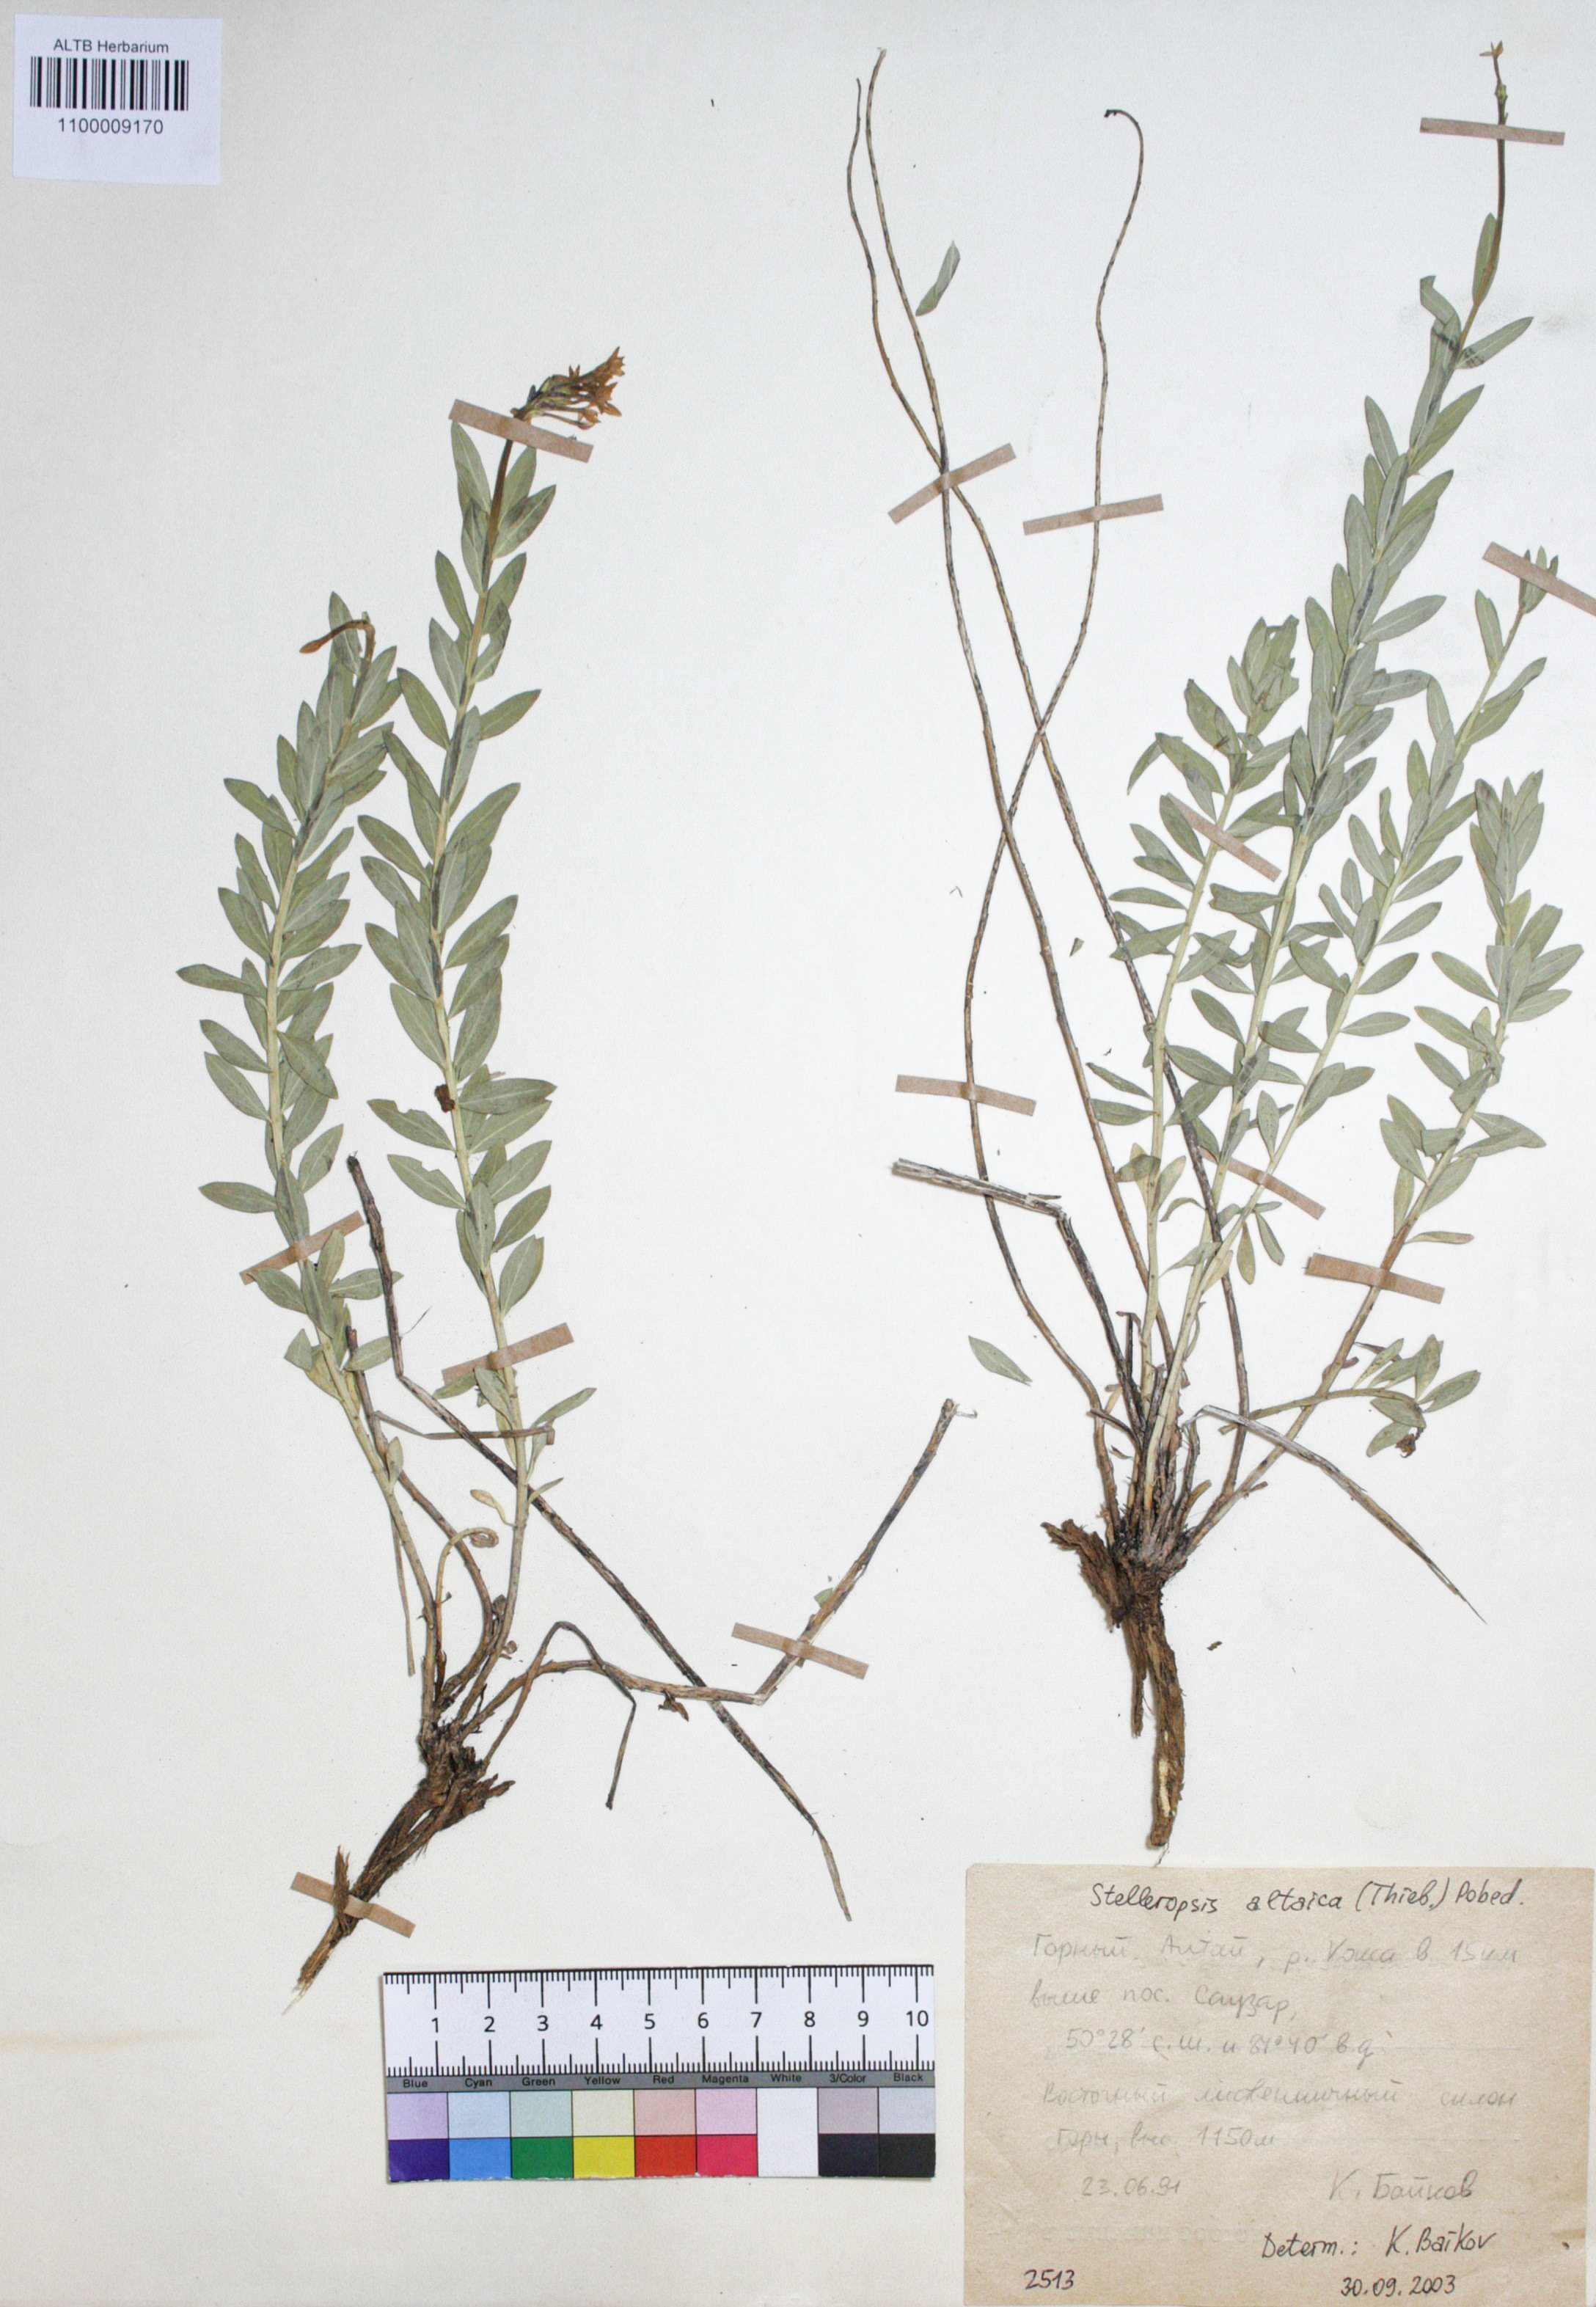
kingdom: Plantae
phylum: Tracheophyta
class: Magnoliopsida
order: Malvales
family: Thymelaeaceae
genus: Diarthron
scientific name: Diarthron altaicum
